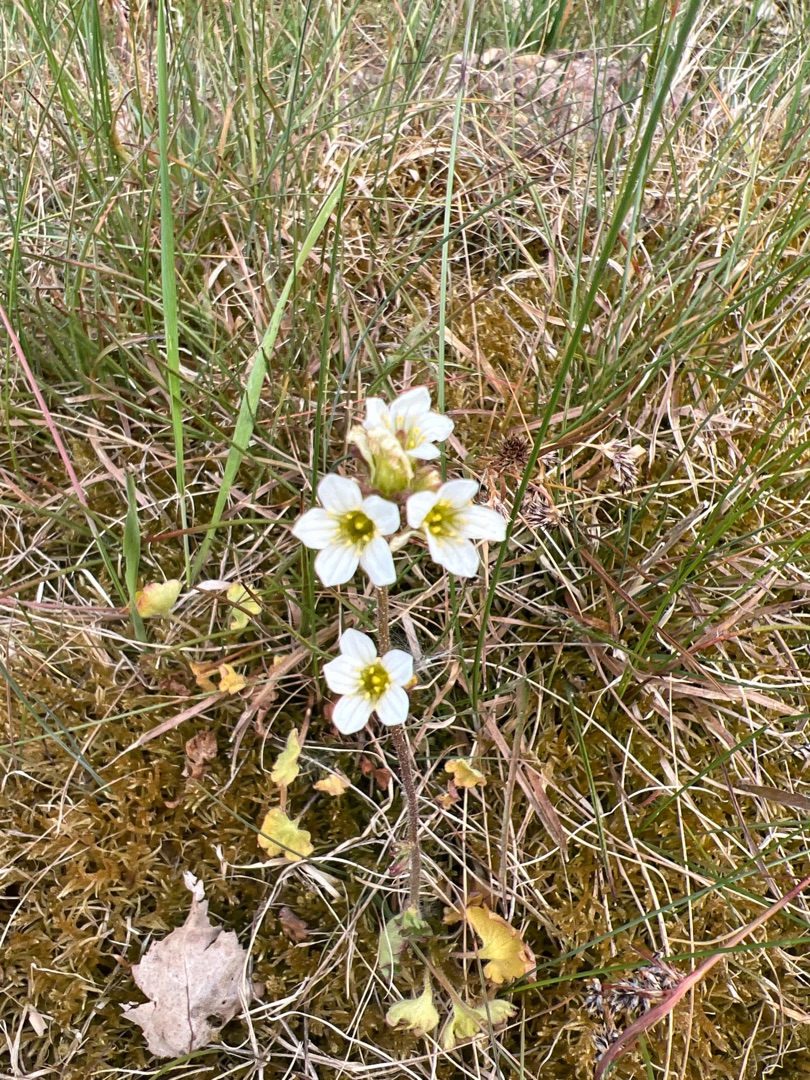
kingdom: Plantae
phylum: Tracheophyta
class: Magnoliopsida
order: Saxifragales
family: Saxifragaceae
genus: Saxifraga
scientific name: Saxifraga granulata
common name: Kornet stenbræk
